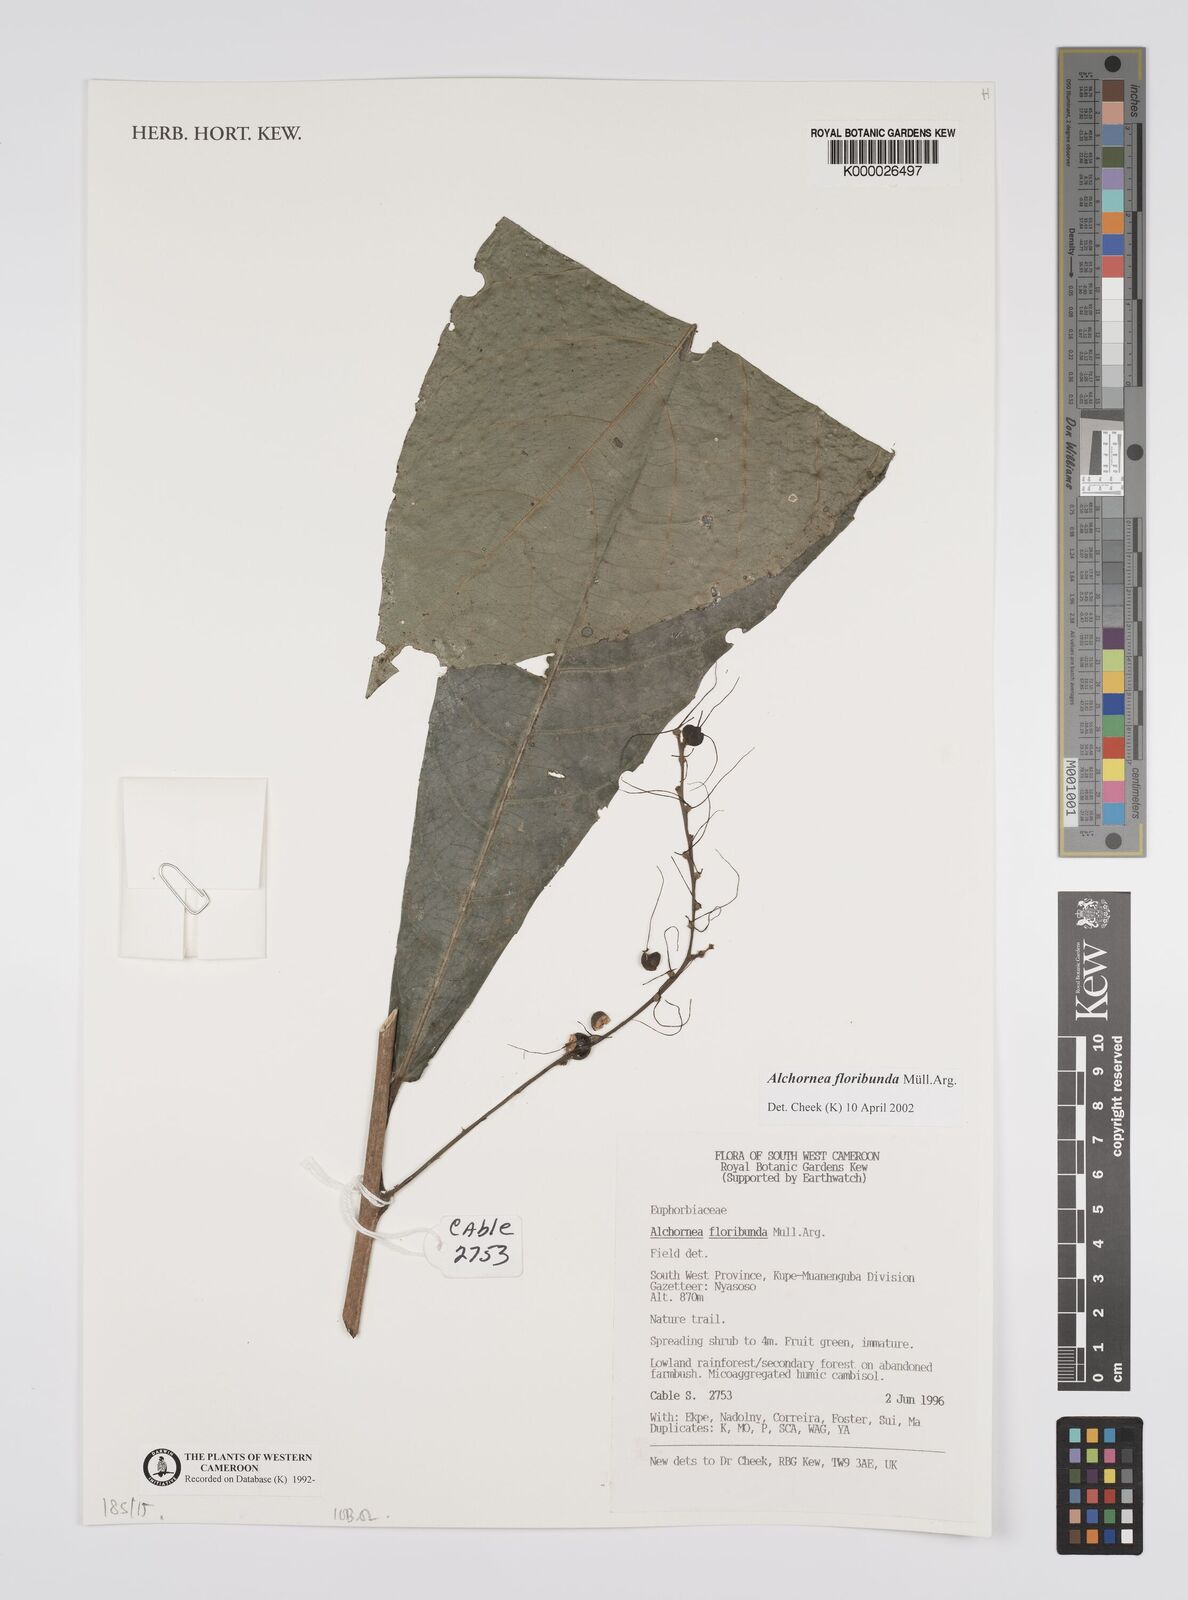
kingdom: Plantae
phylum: Tracheophyta
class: Magnoliopsida
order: Malpighiales
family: Euphorbiaceae
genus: Alchornea
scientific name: Alchornea
